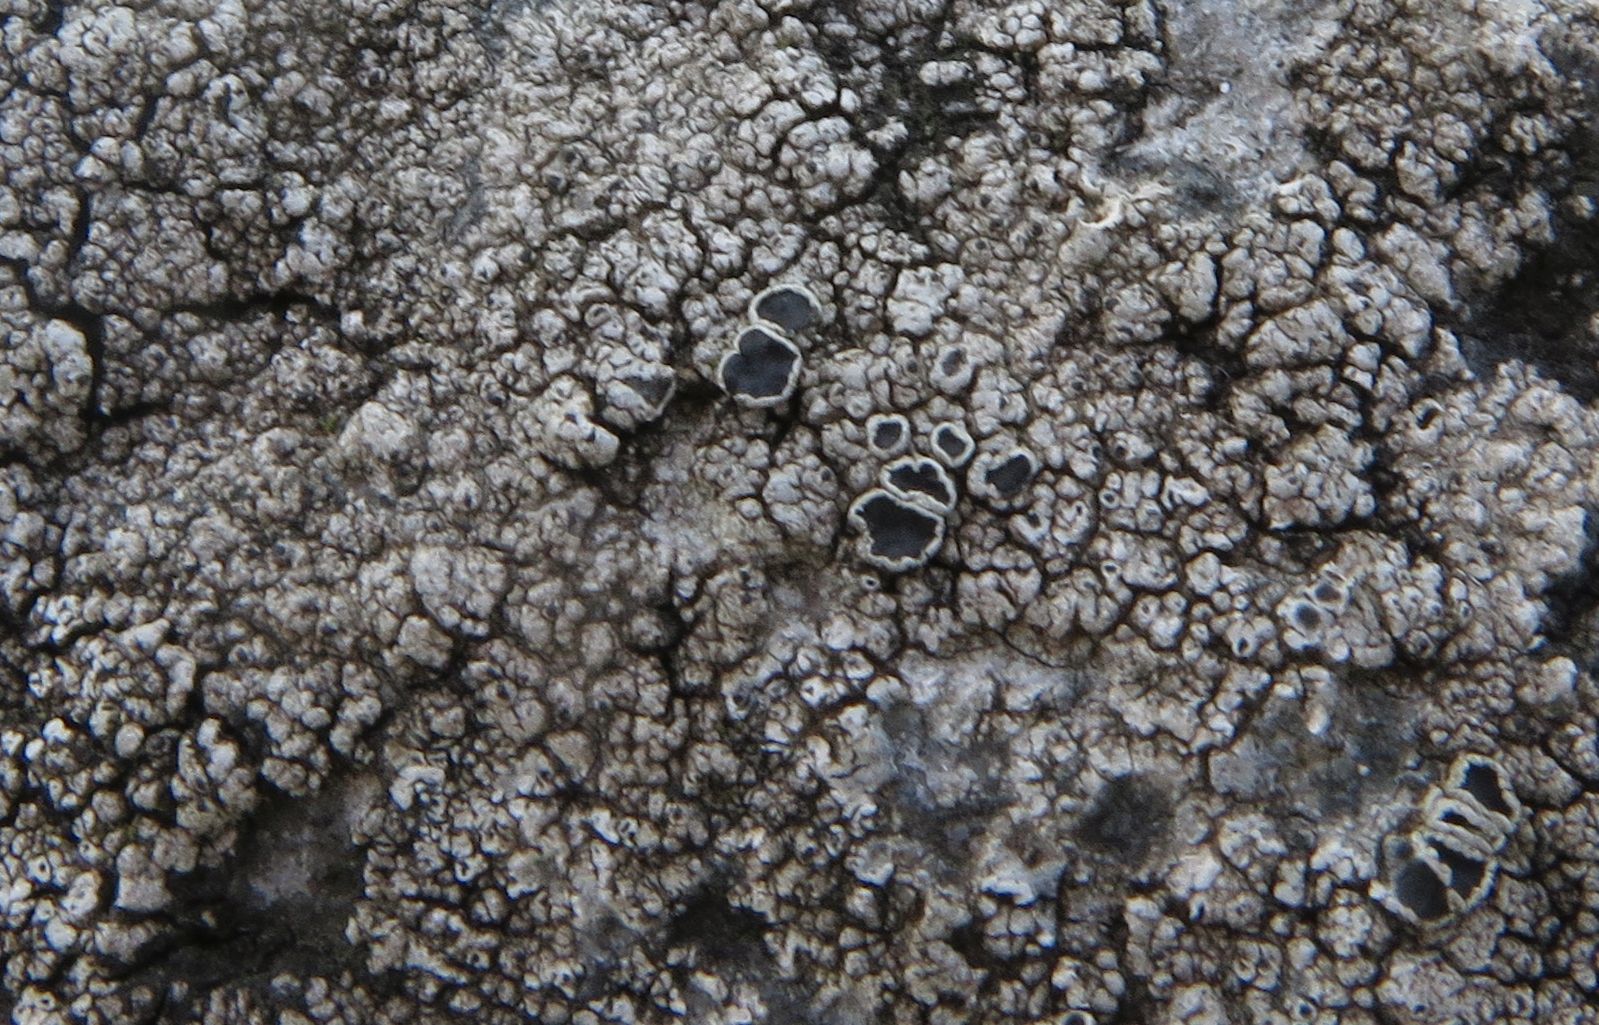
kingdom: Fungi
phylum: Ascomycota
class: Lecanoromycetes
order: Lecanorales
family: Tephromelataceae
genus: Tephromela
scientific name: Tephromela atra
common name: sortfrugtet kantskivelav
